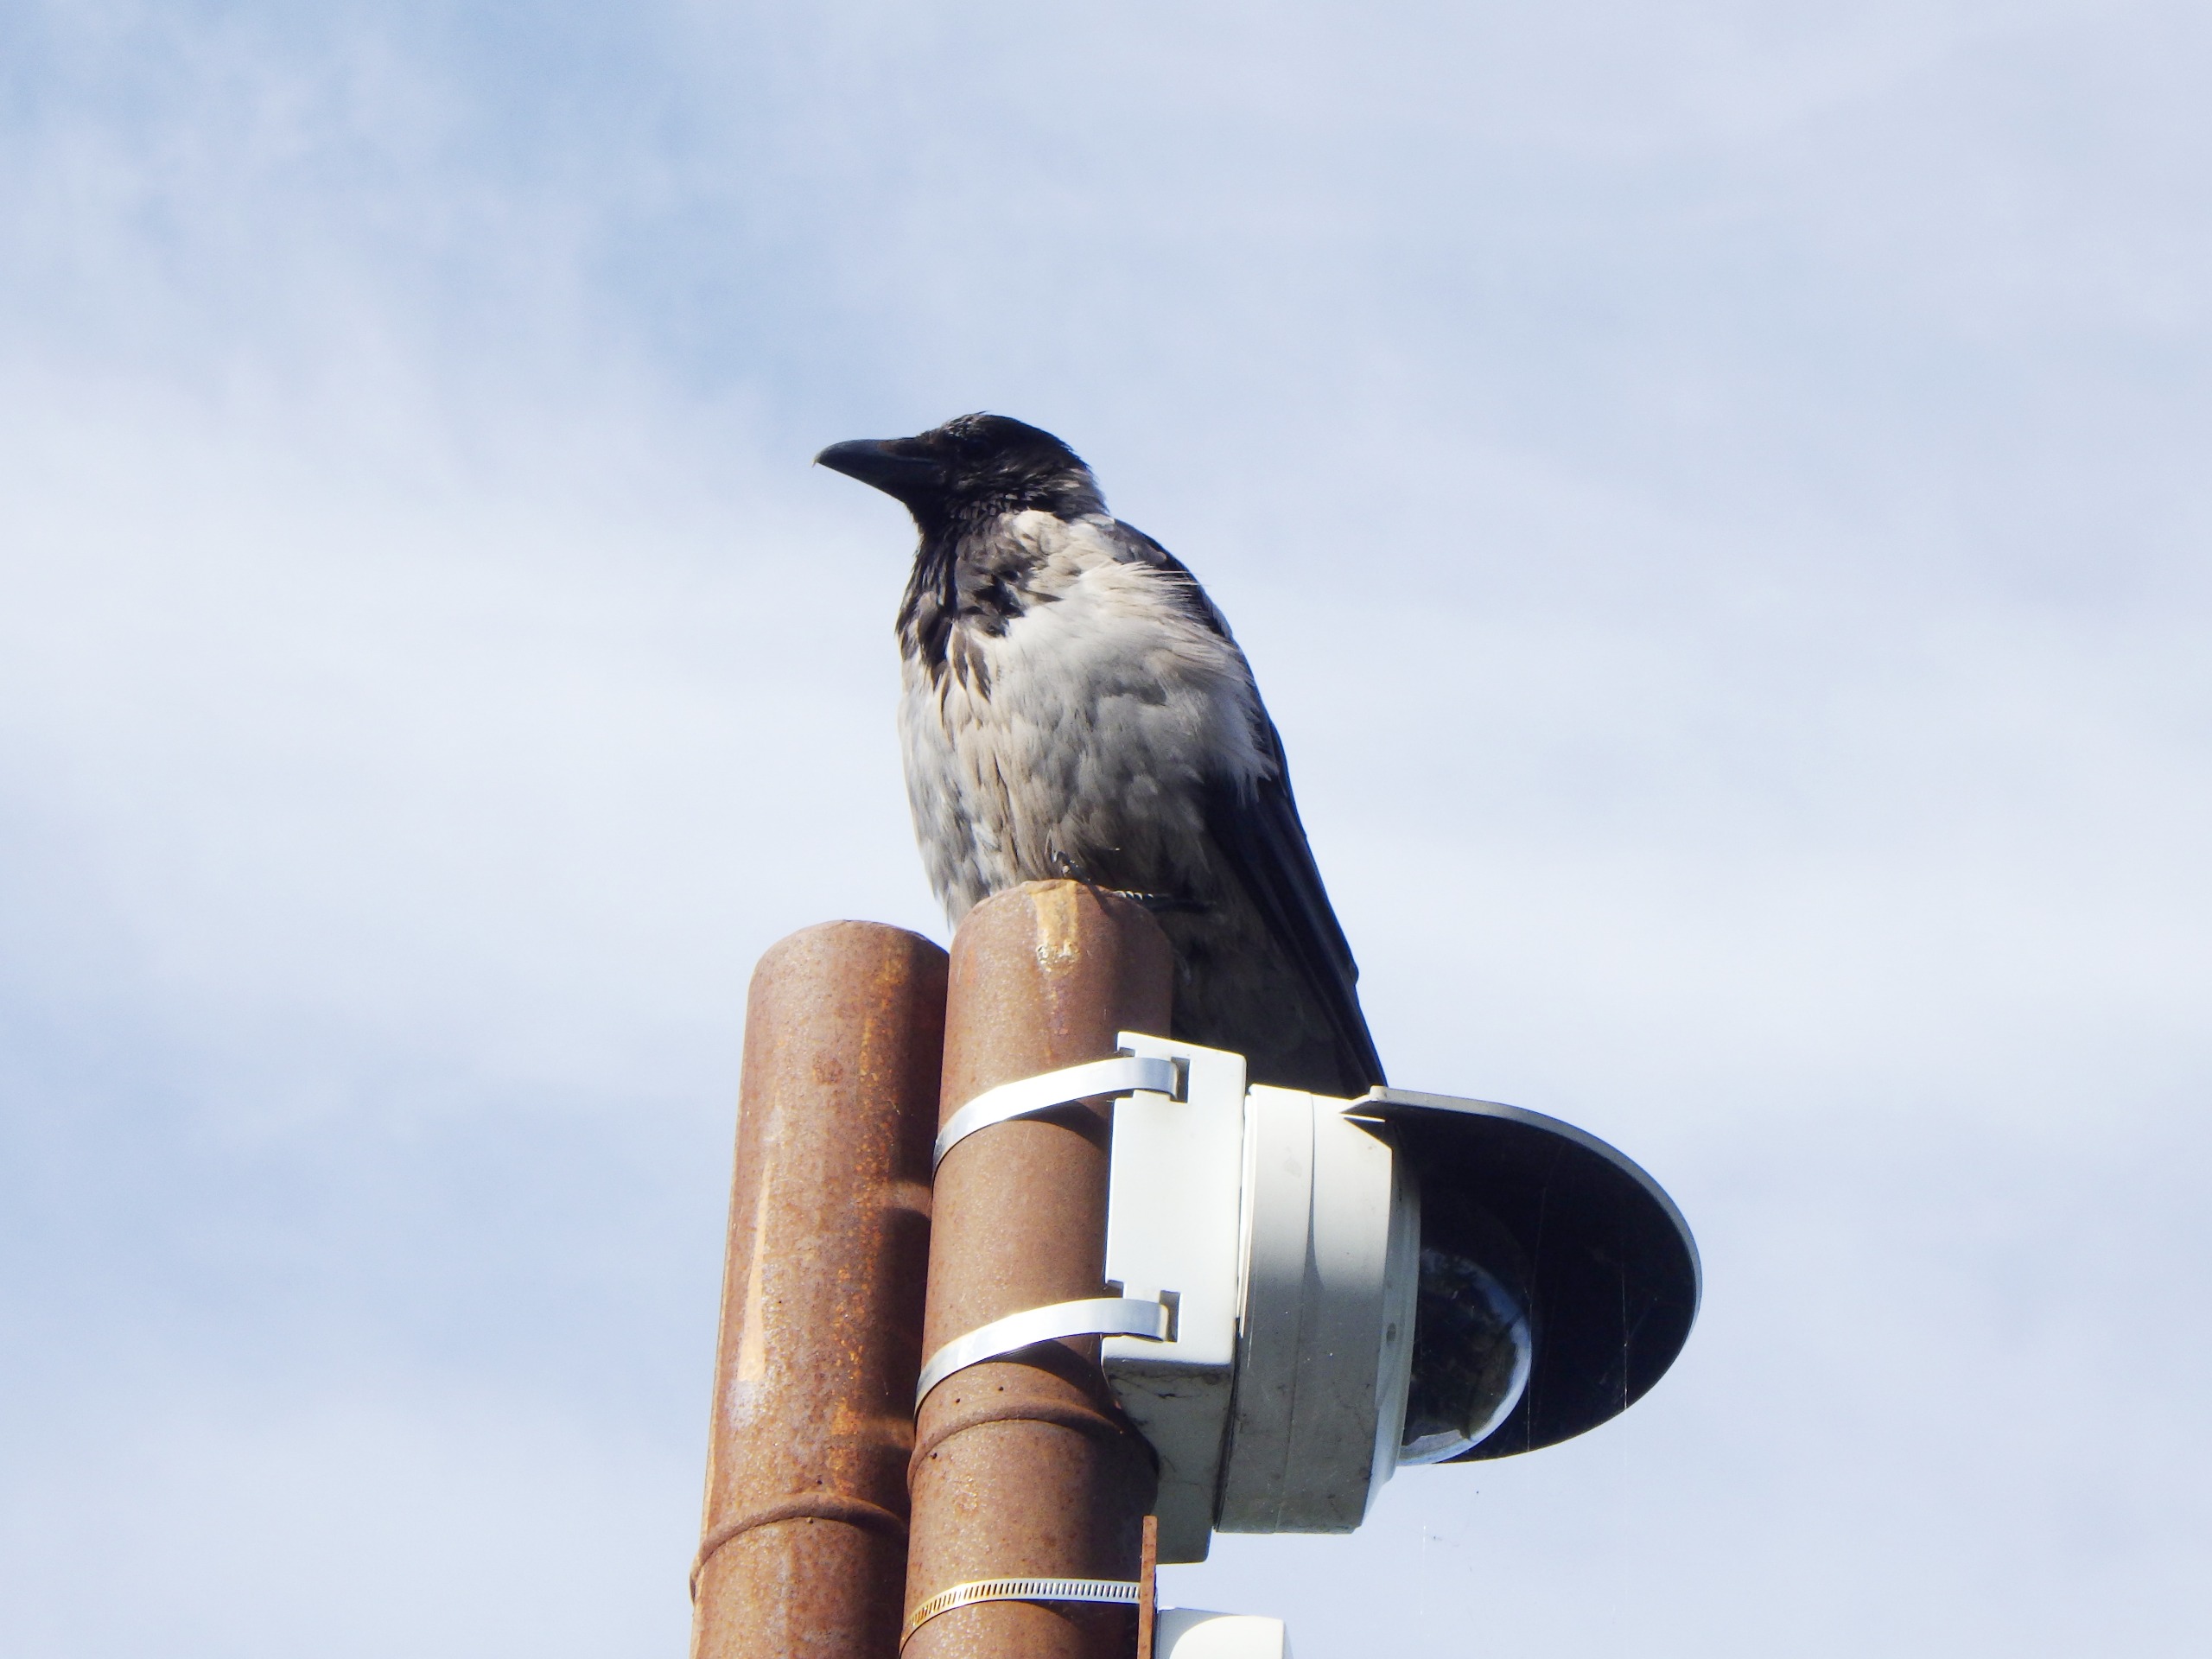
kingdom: Animalia
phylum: Chordata
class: Aves
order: Passeriformes
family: Corvidae
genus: Corvus
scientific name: Corvus cornix
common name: Gråkrage
